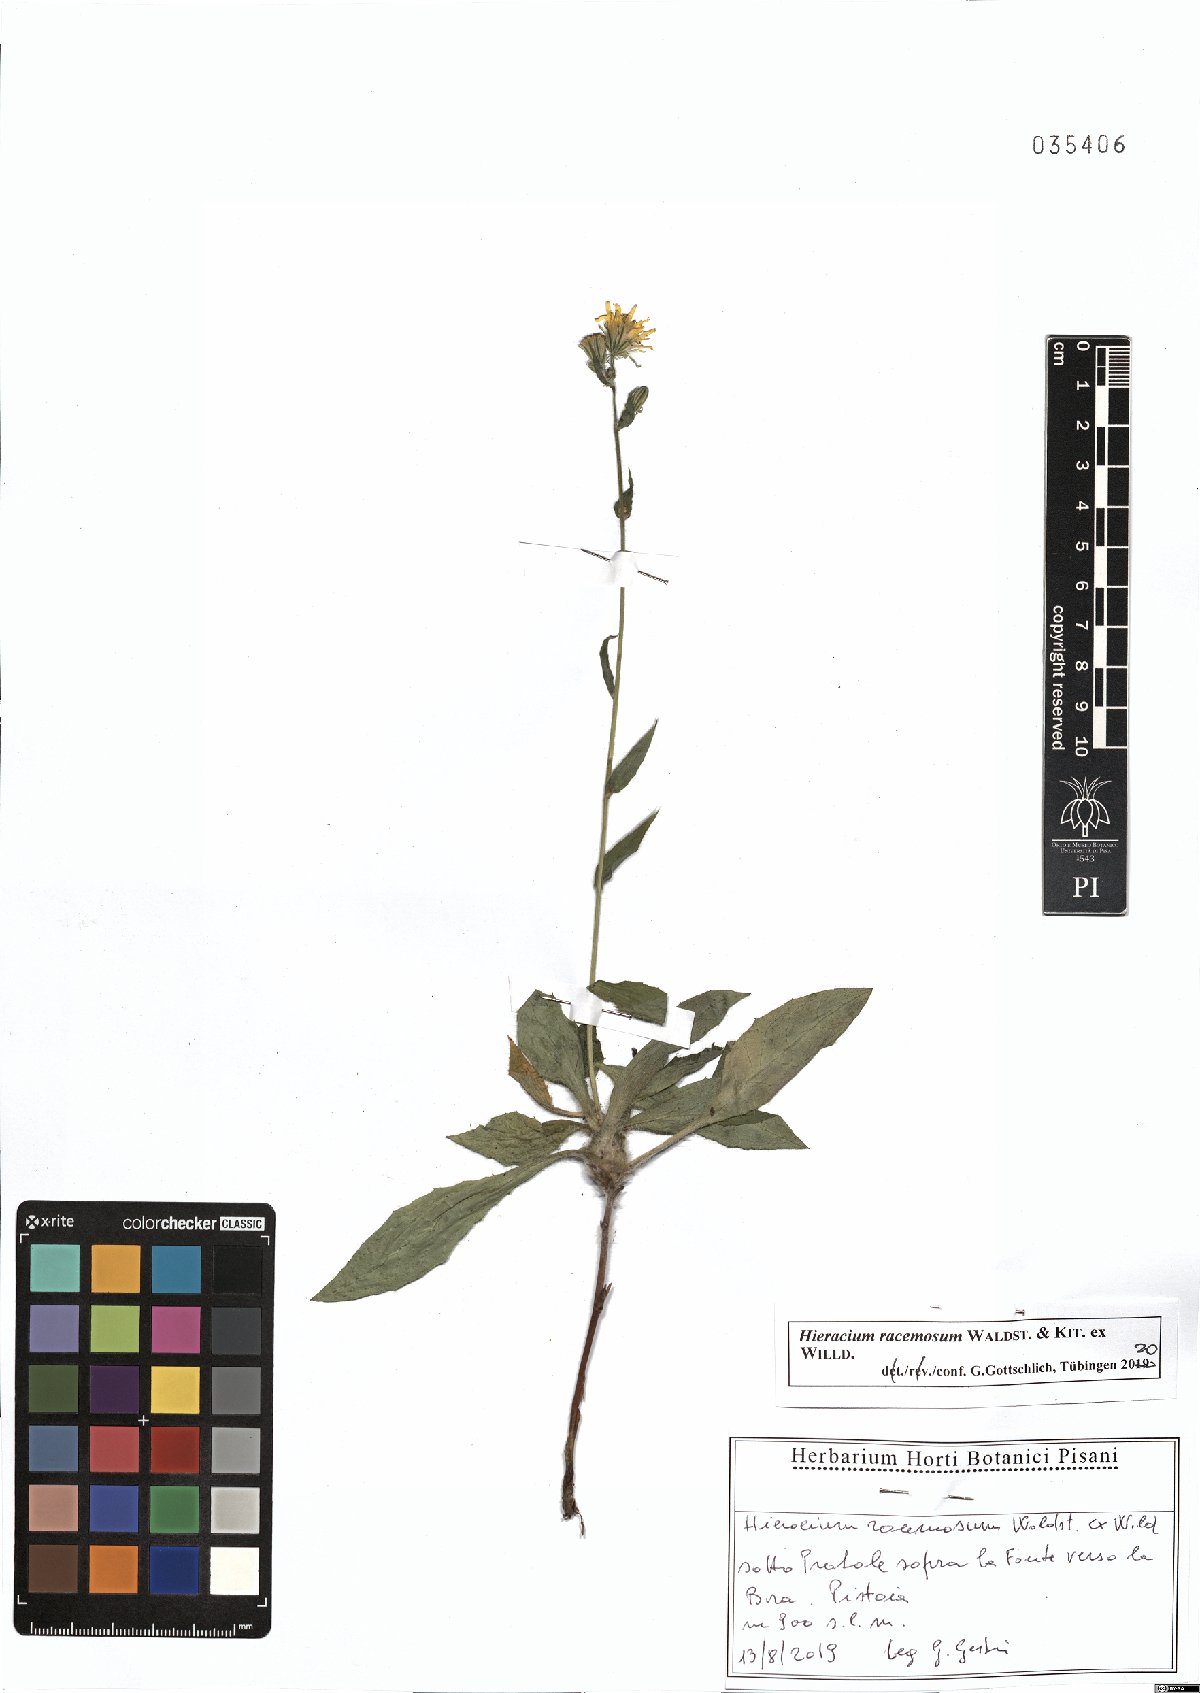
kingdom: Plantae
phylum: Tracheophyta
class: Magnoliopsida
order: Asterales
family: Asteraceae
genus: Hieracium
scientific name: Hieracium racemosum
